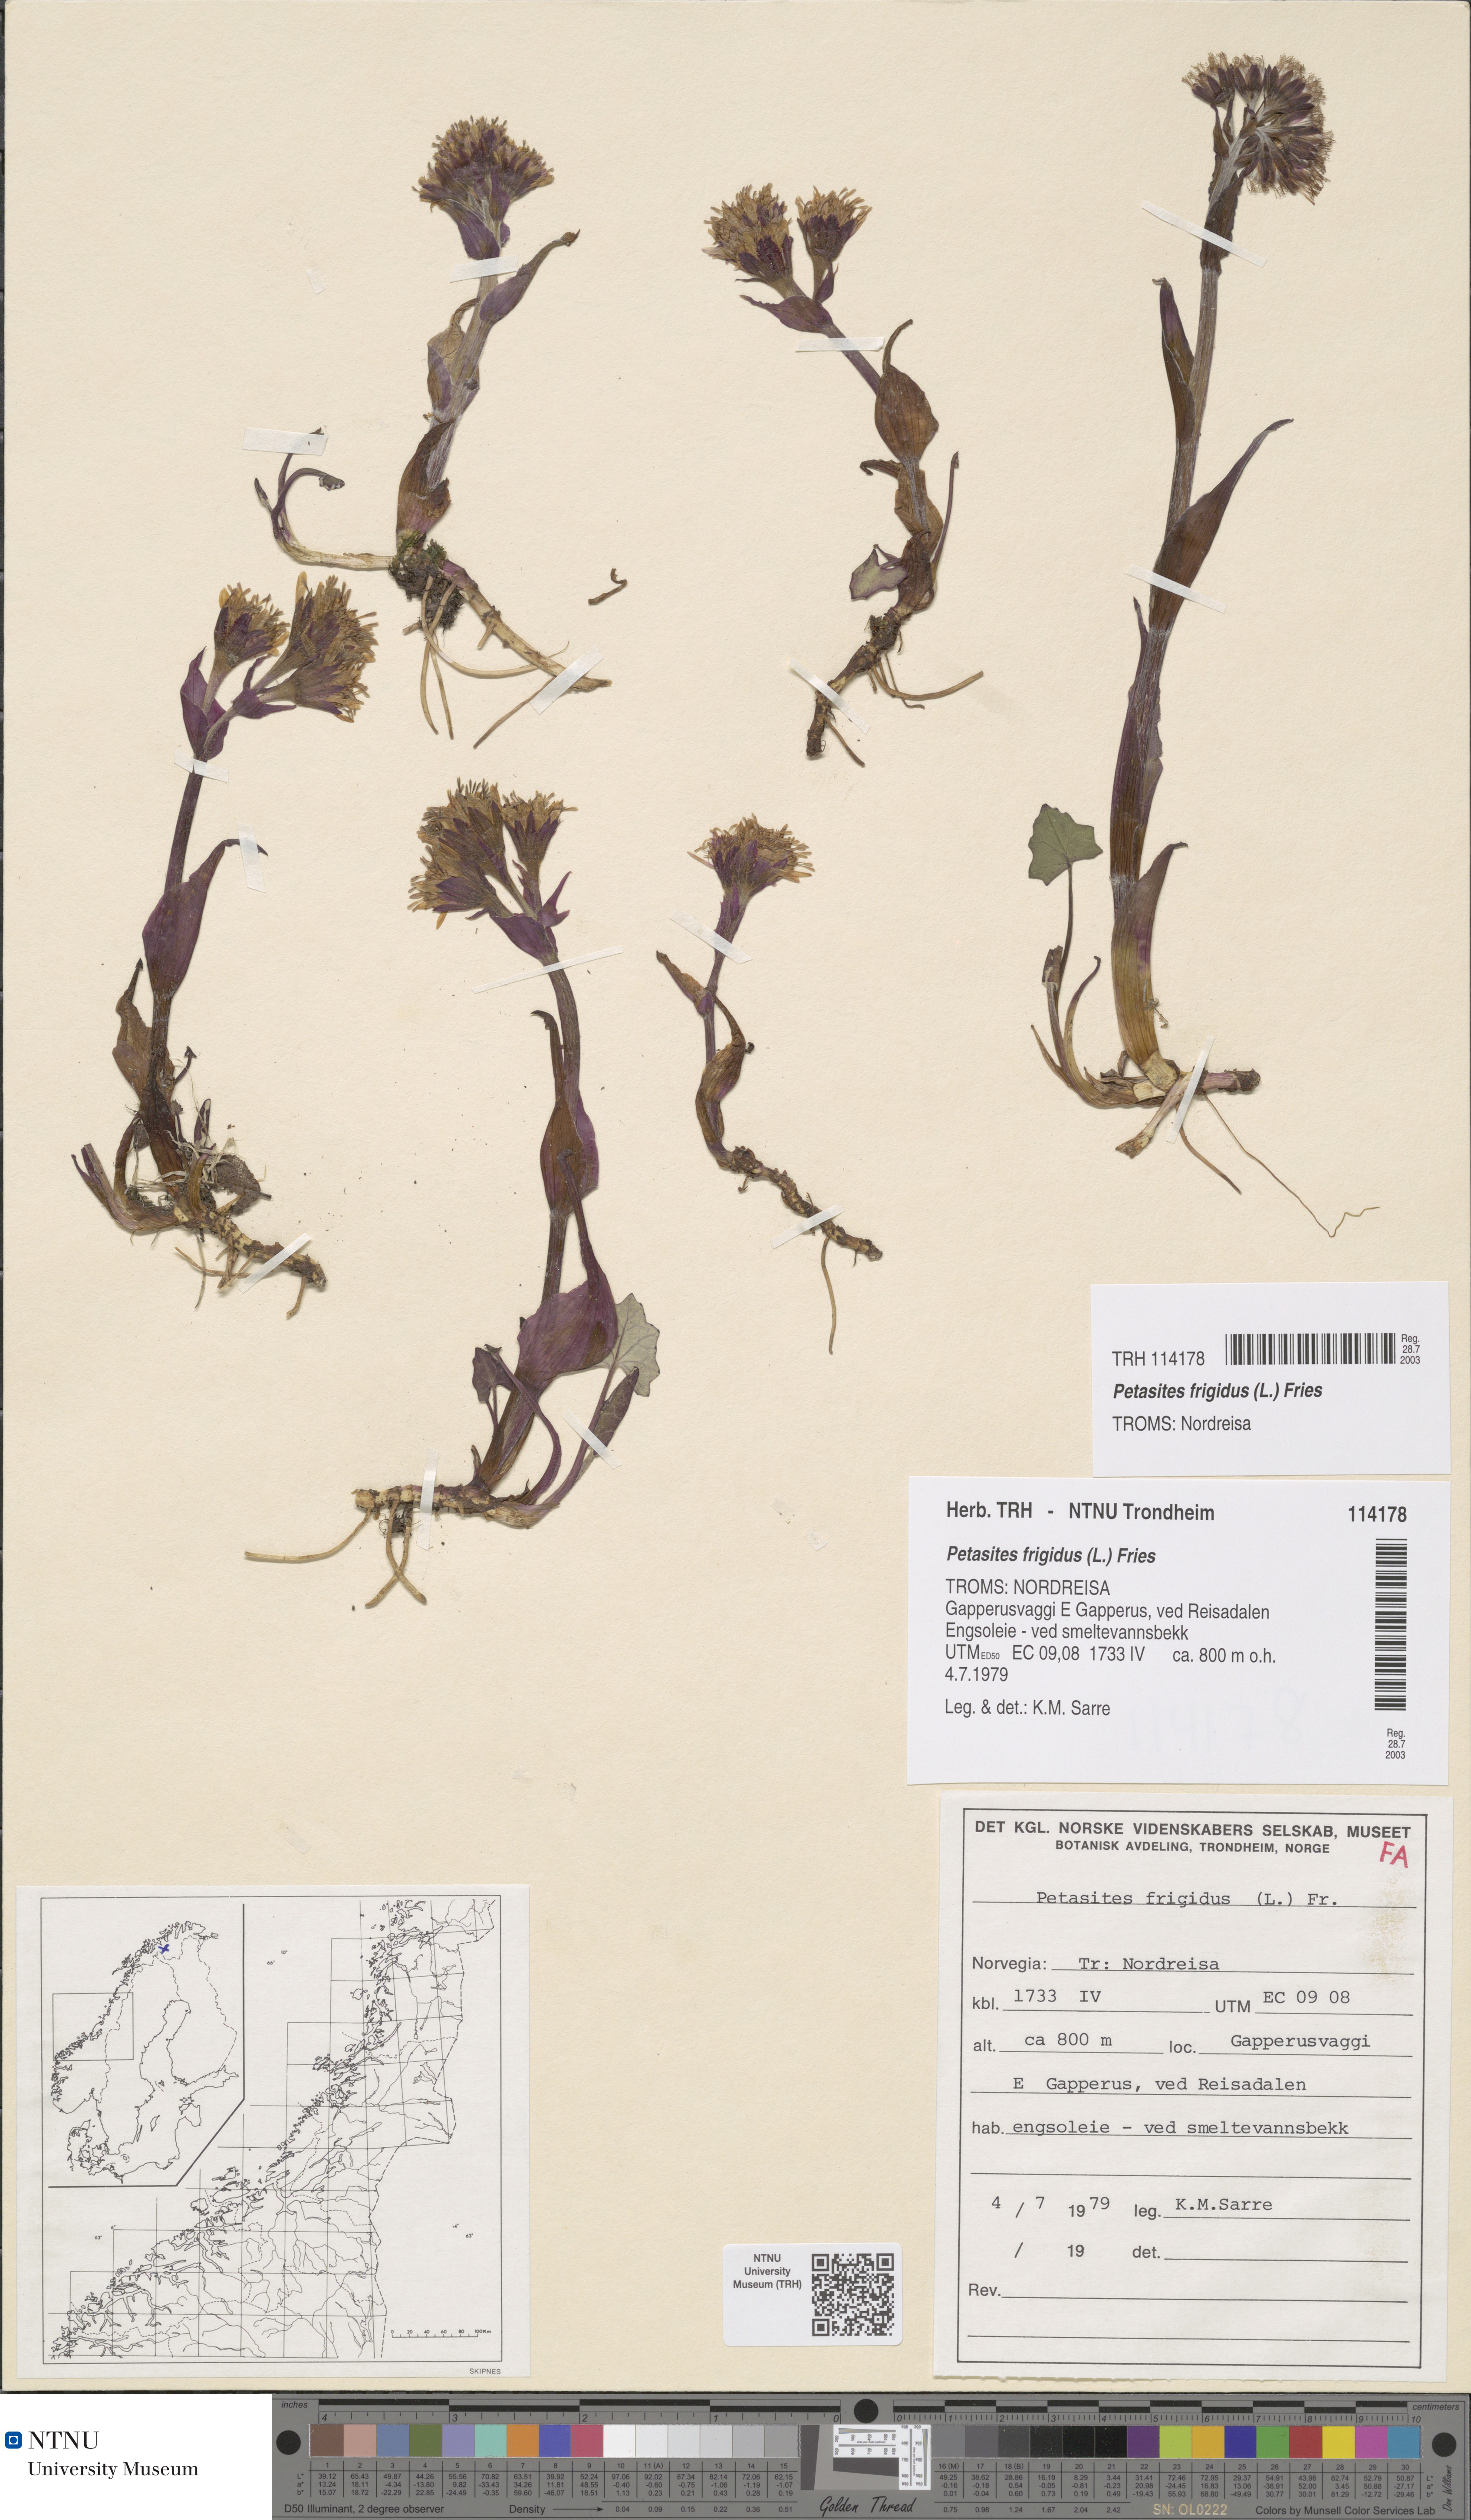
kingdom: Plantae
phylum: Tracheophyta
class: Magnoliopsida
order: Asterales
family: Asteraceae
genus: Petasites
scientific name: Petasites frigidus
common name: Arctic butterbur
